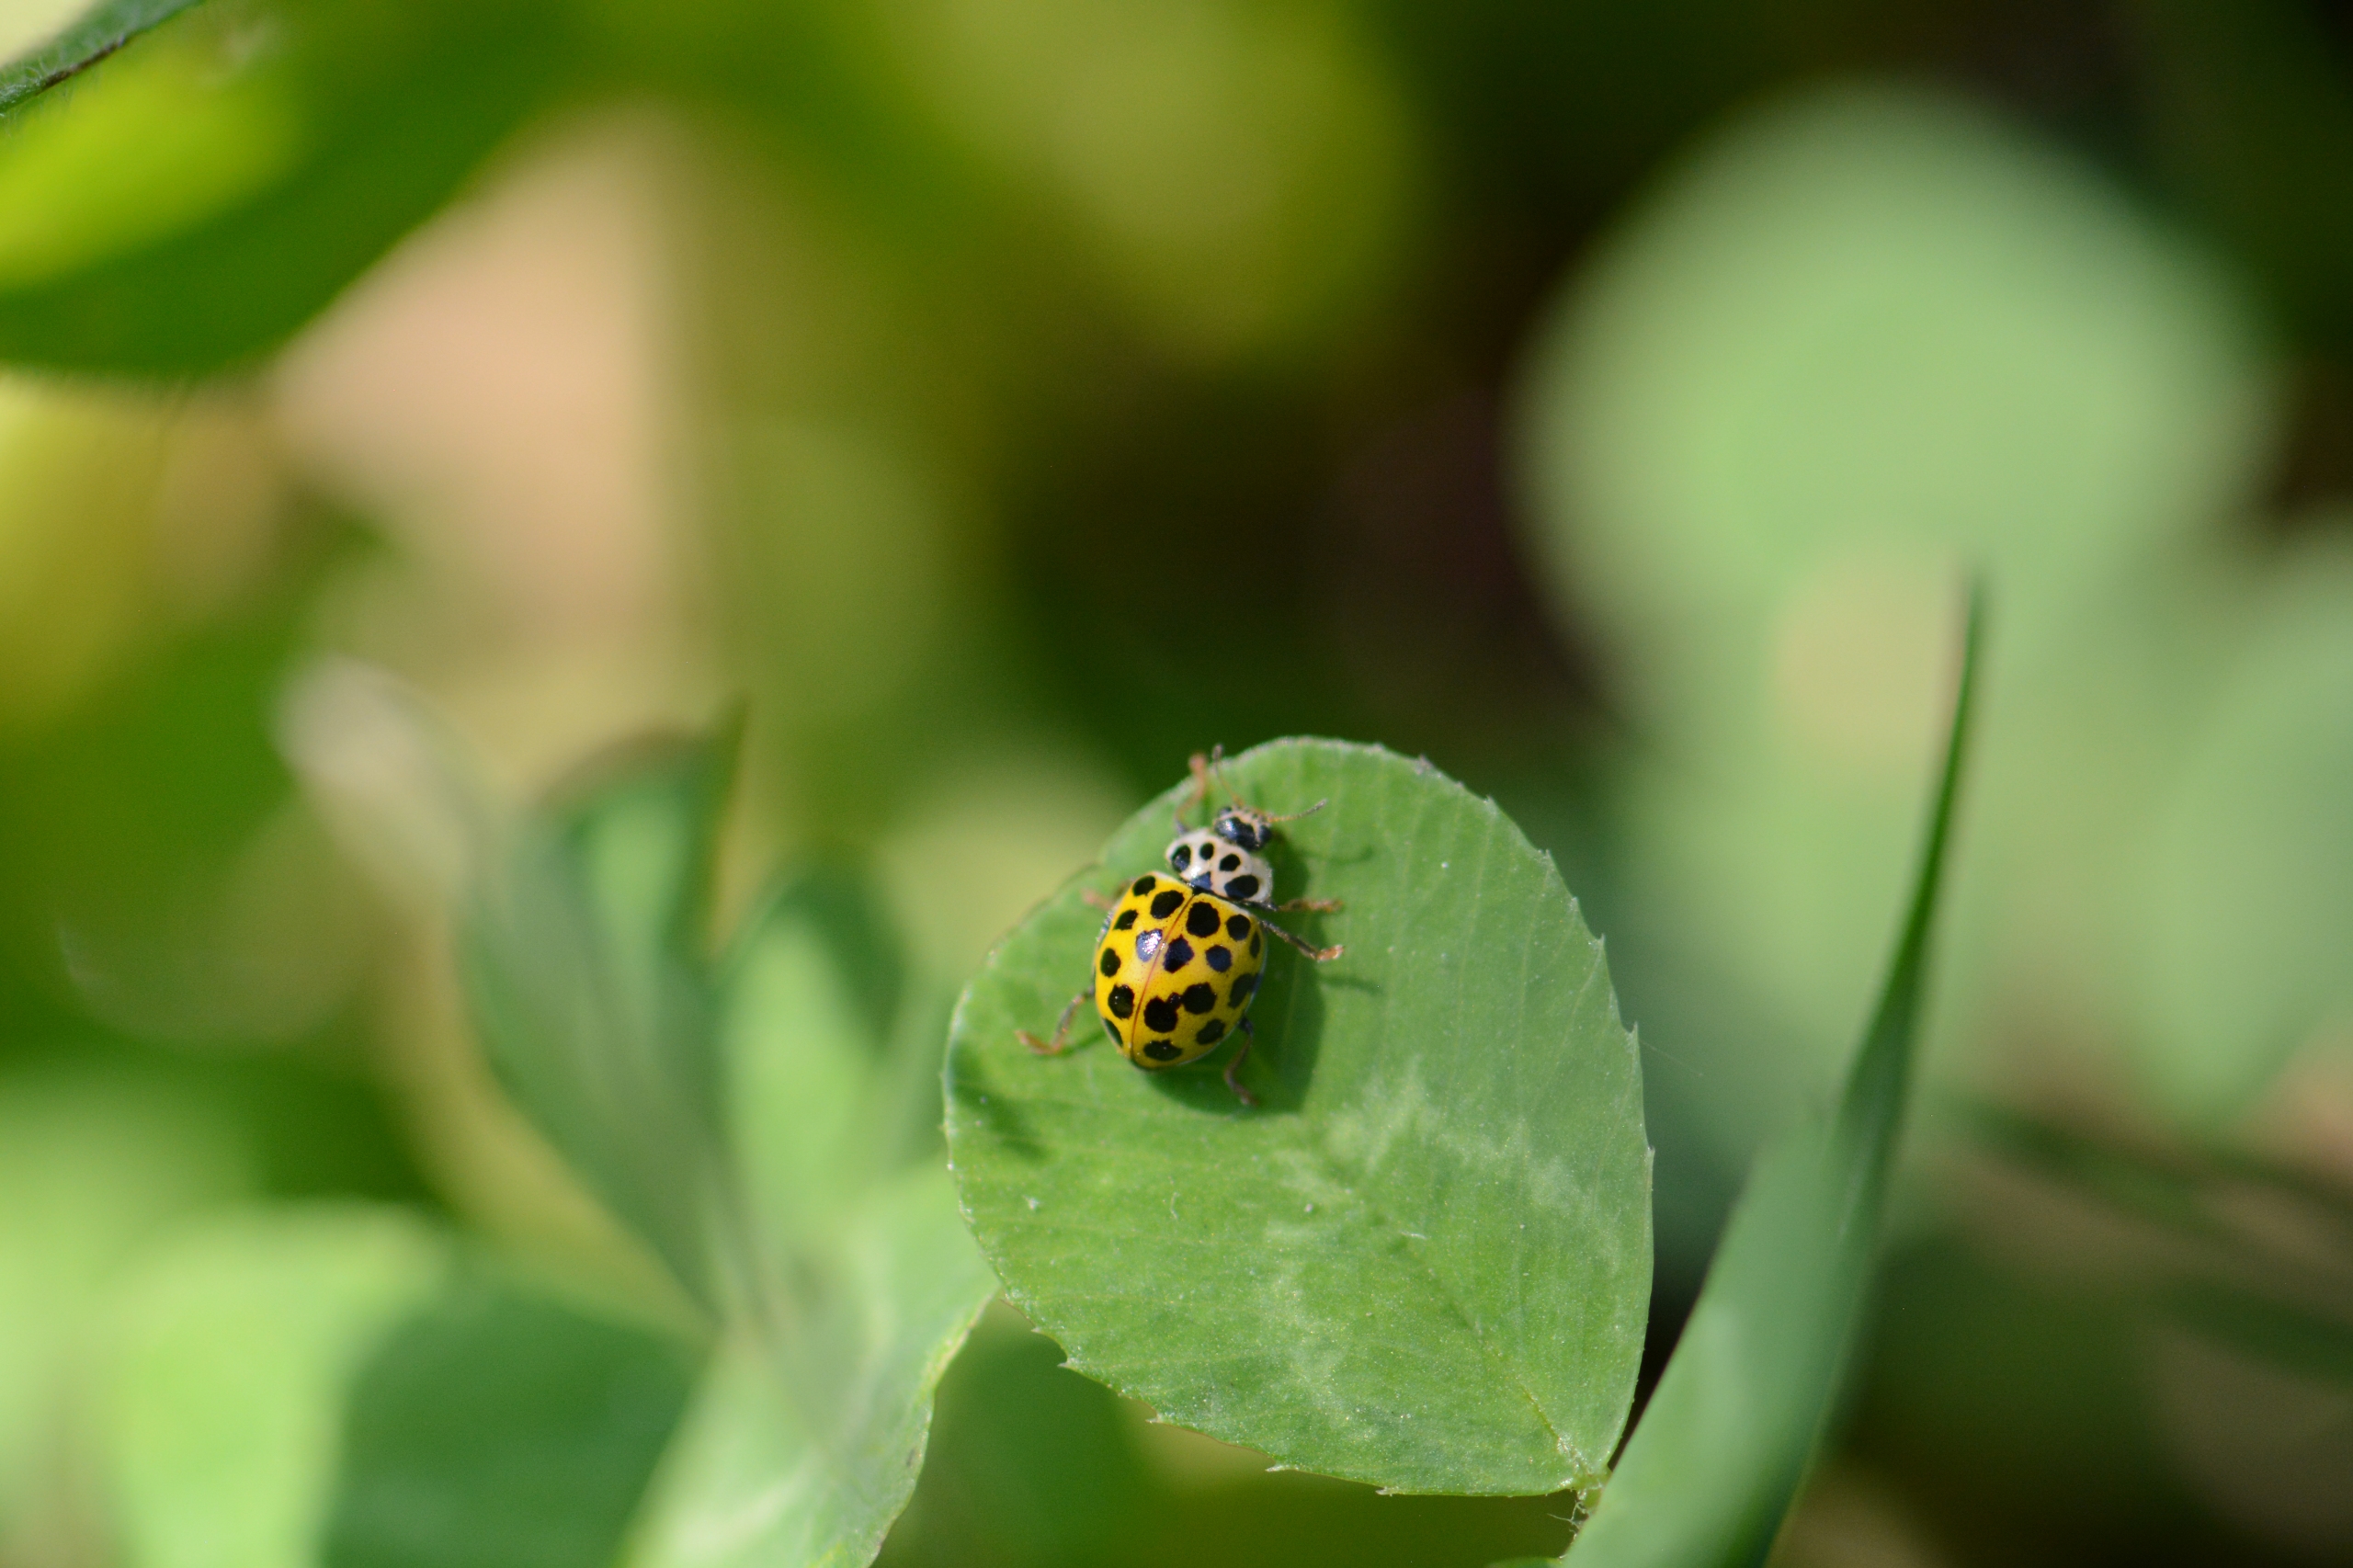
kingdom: Animalia
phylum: Arthropoda
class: Insecta
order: Coleoptera
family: Coccinellidae
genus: Psyllobora
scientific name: Psyllobora vigintiduopunctata
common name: Toogtyveplettet mariehøne
